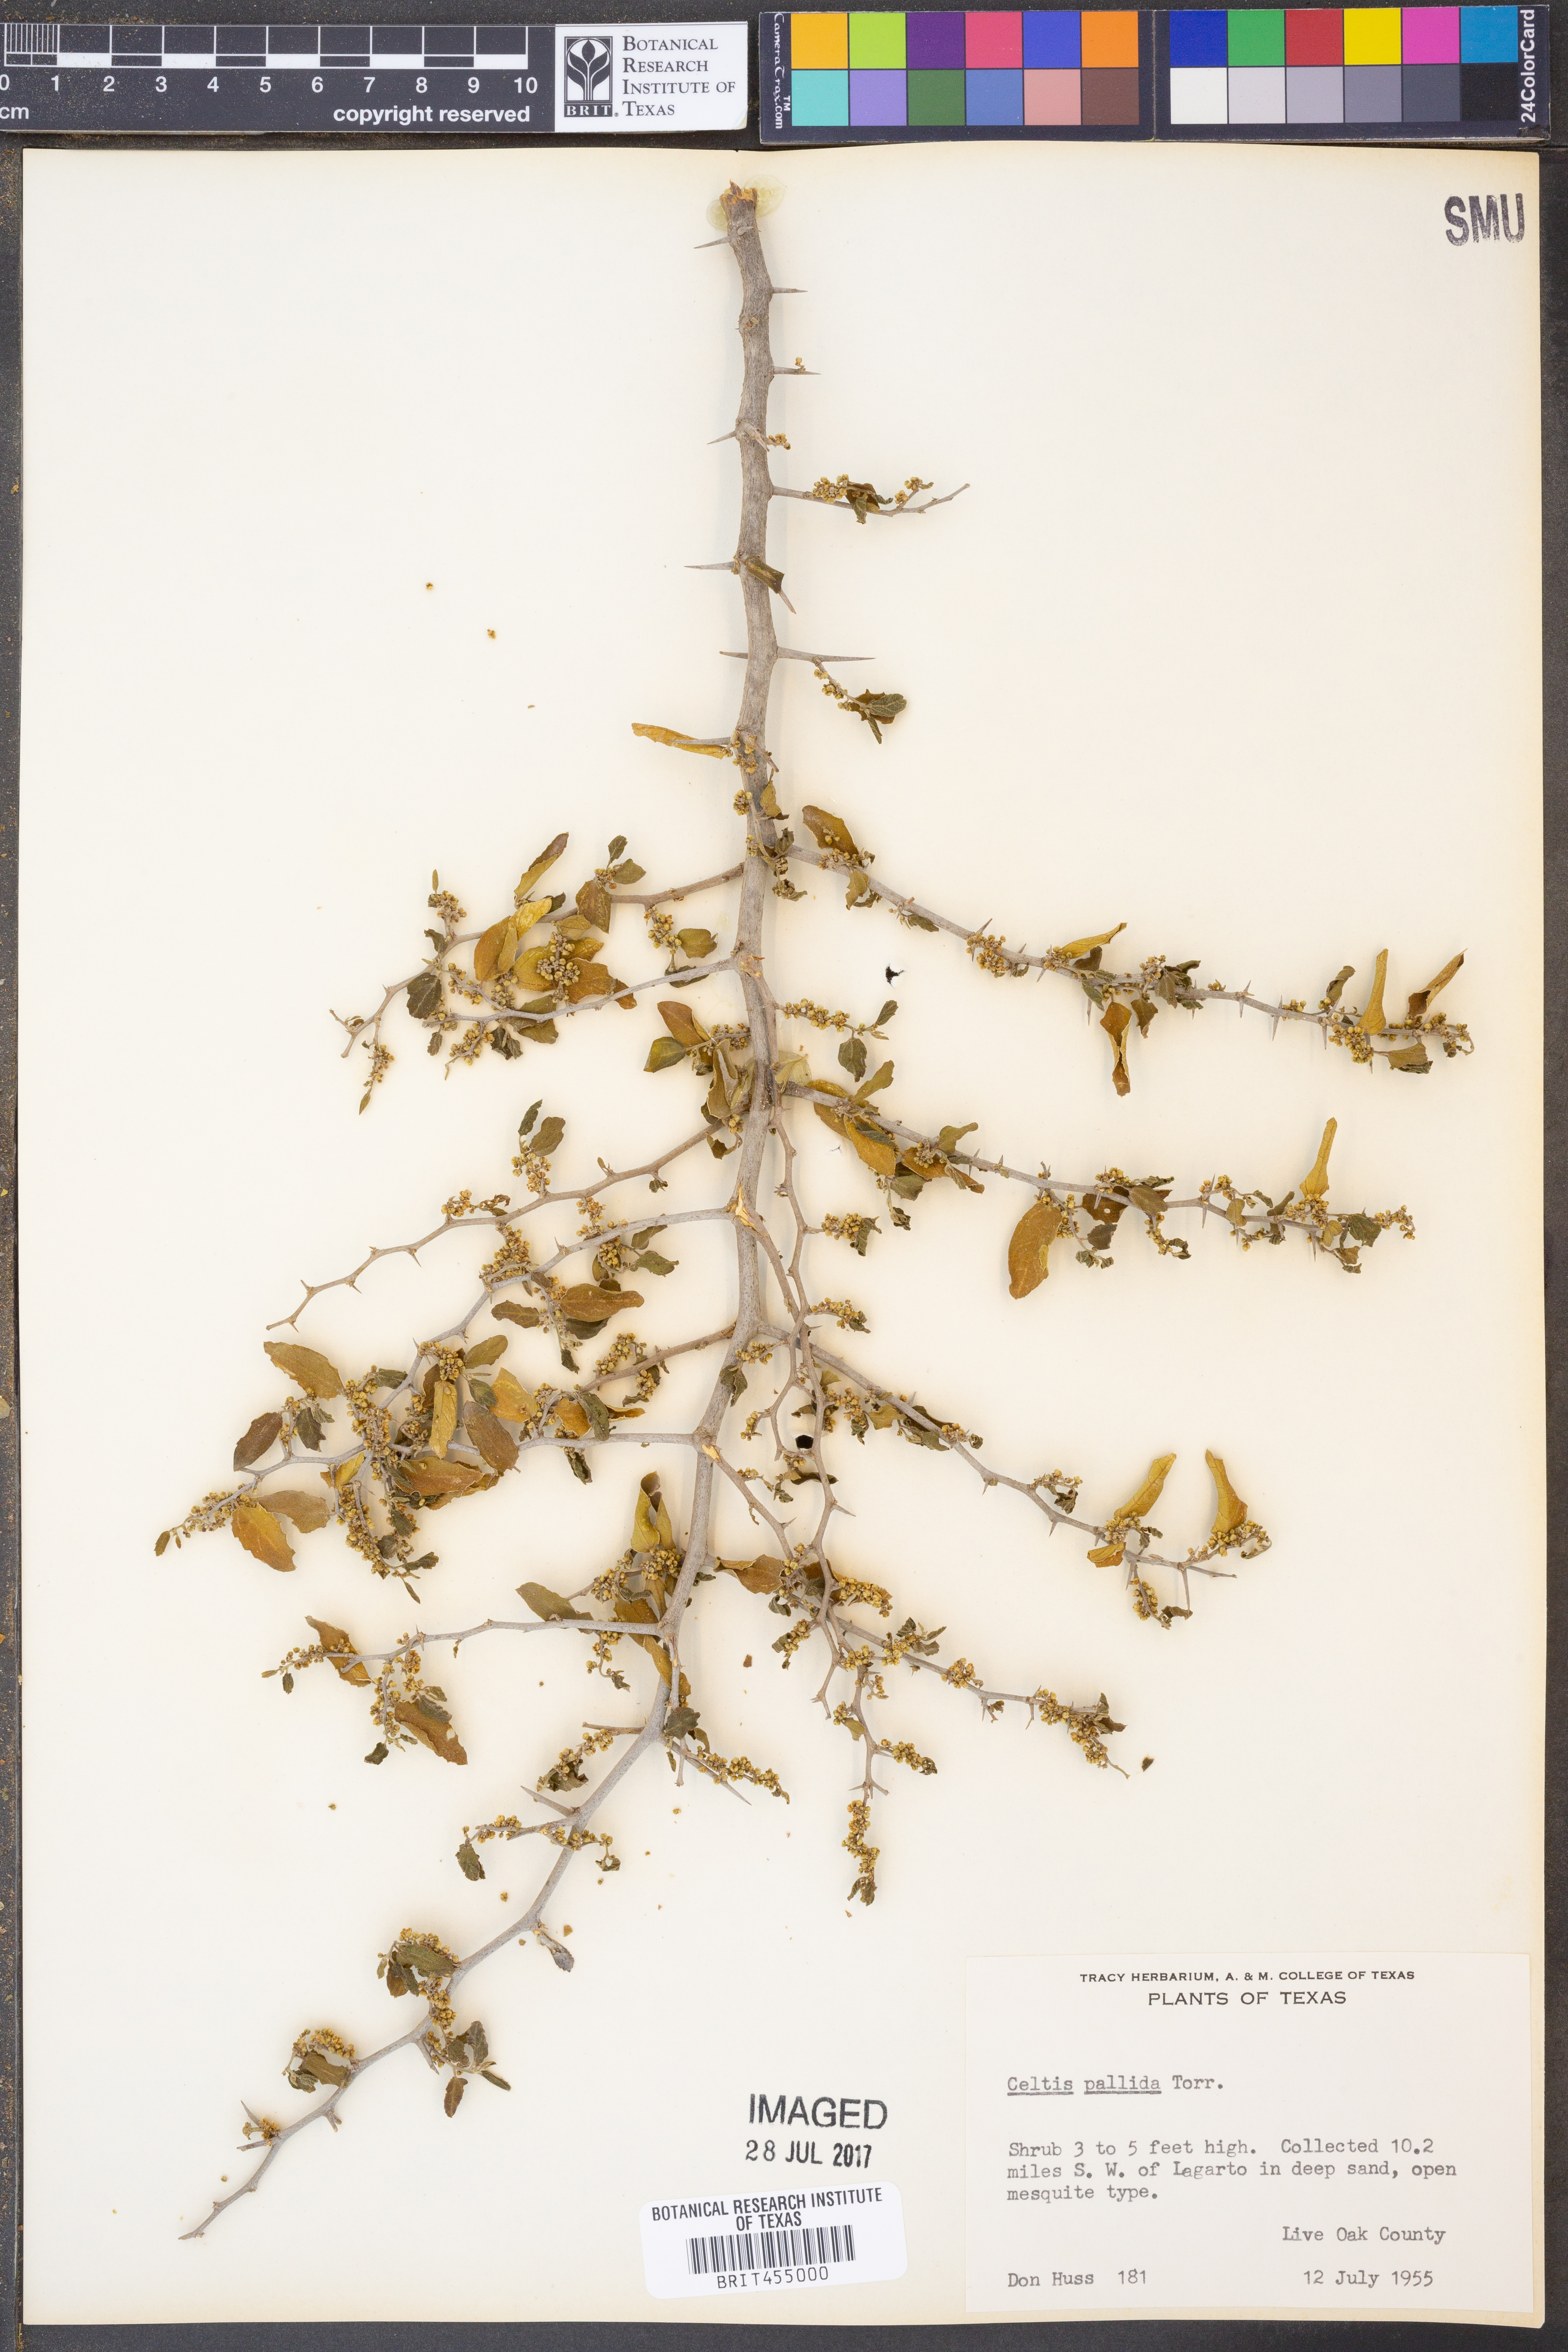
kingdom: Plantae
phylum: Tracheophyta
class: Magnoliopsida
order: Rosales
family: Cannabaceae
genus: Celtis
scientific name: Celtis pallida
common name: Desert hackberry
